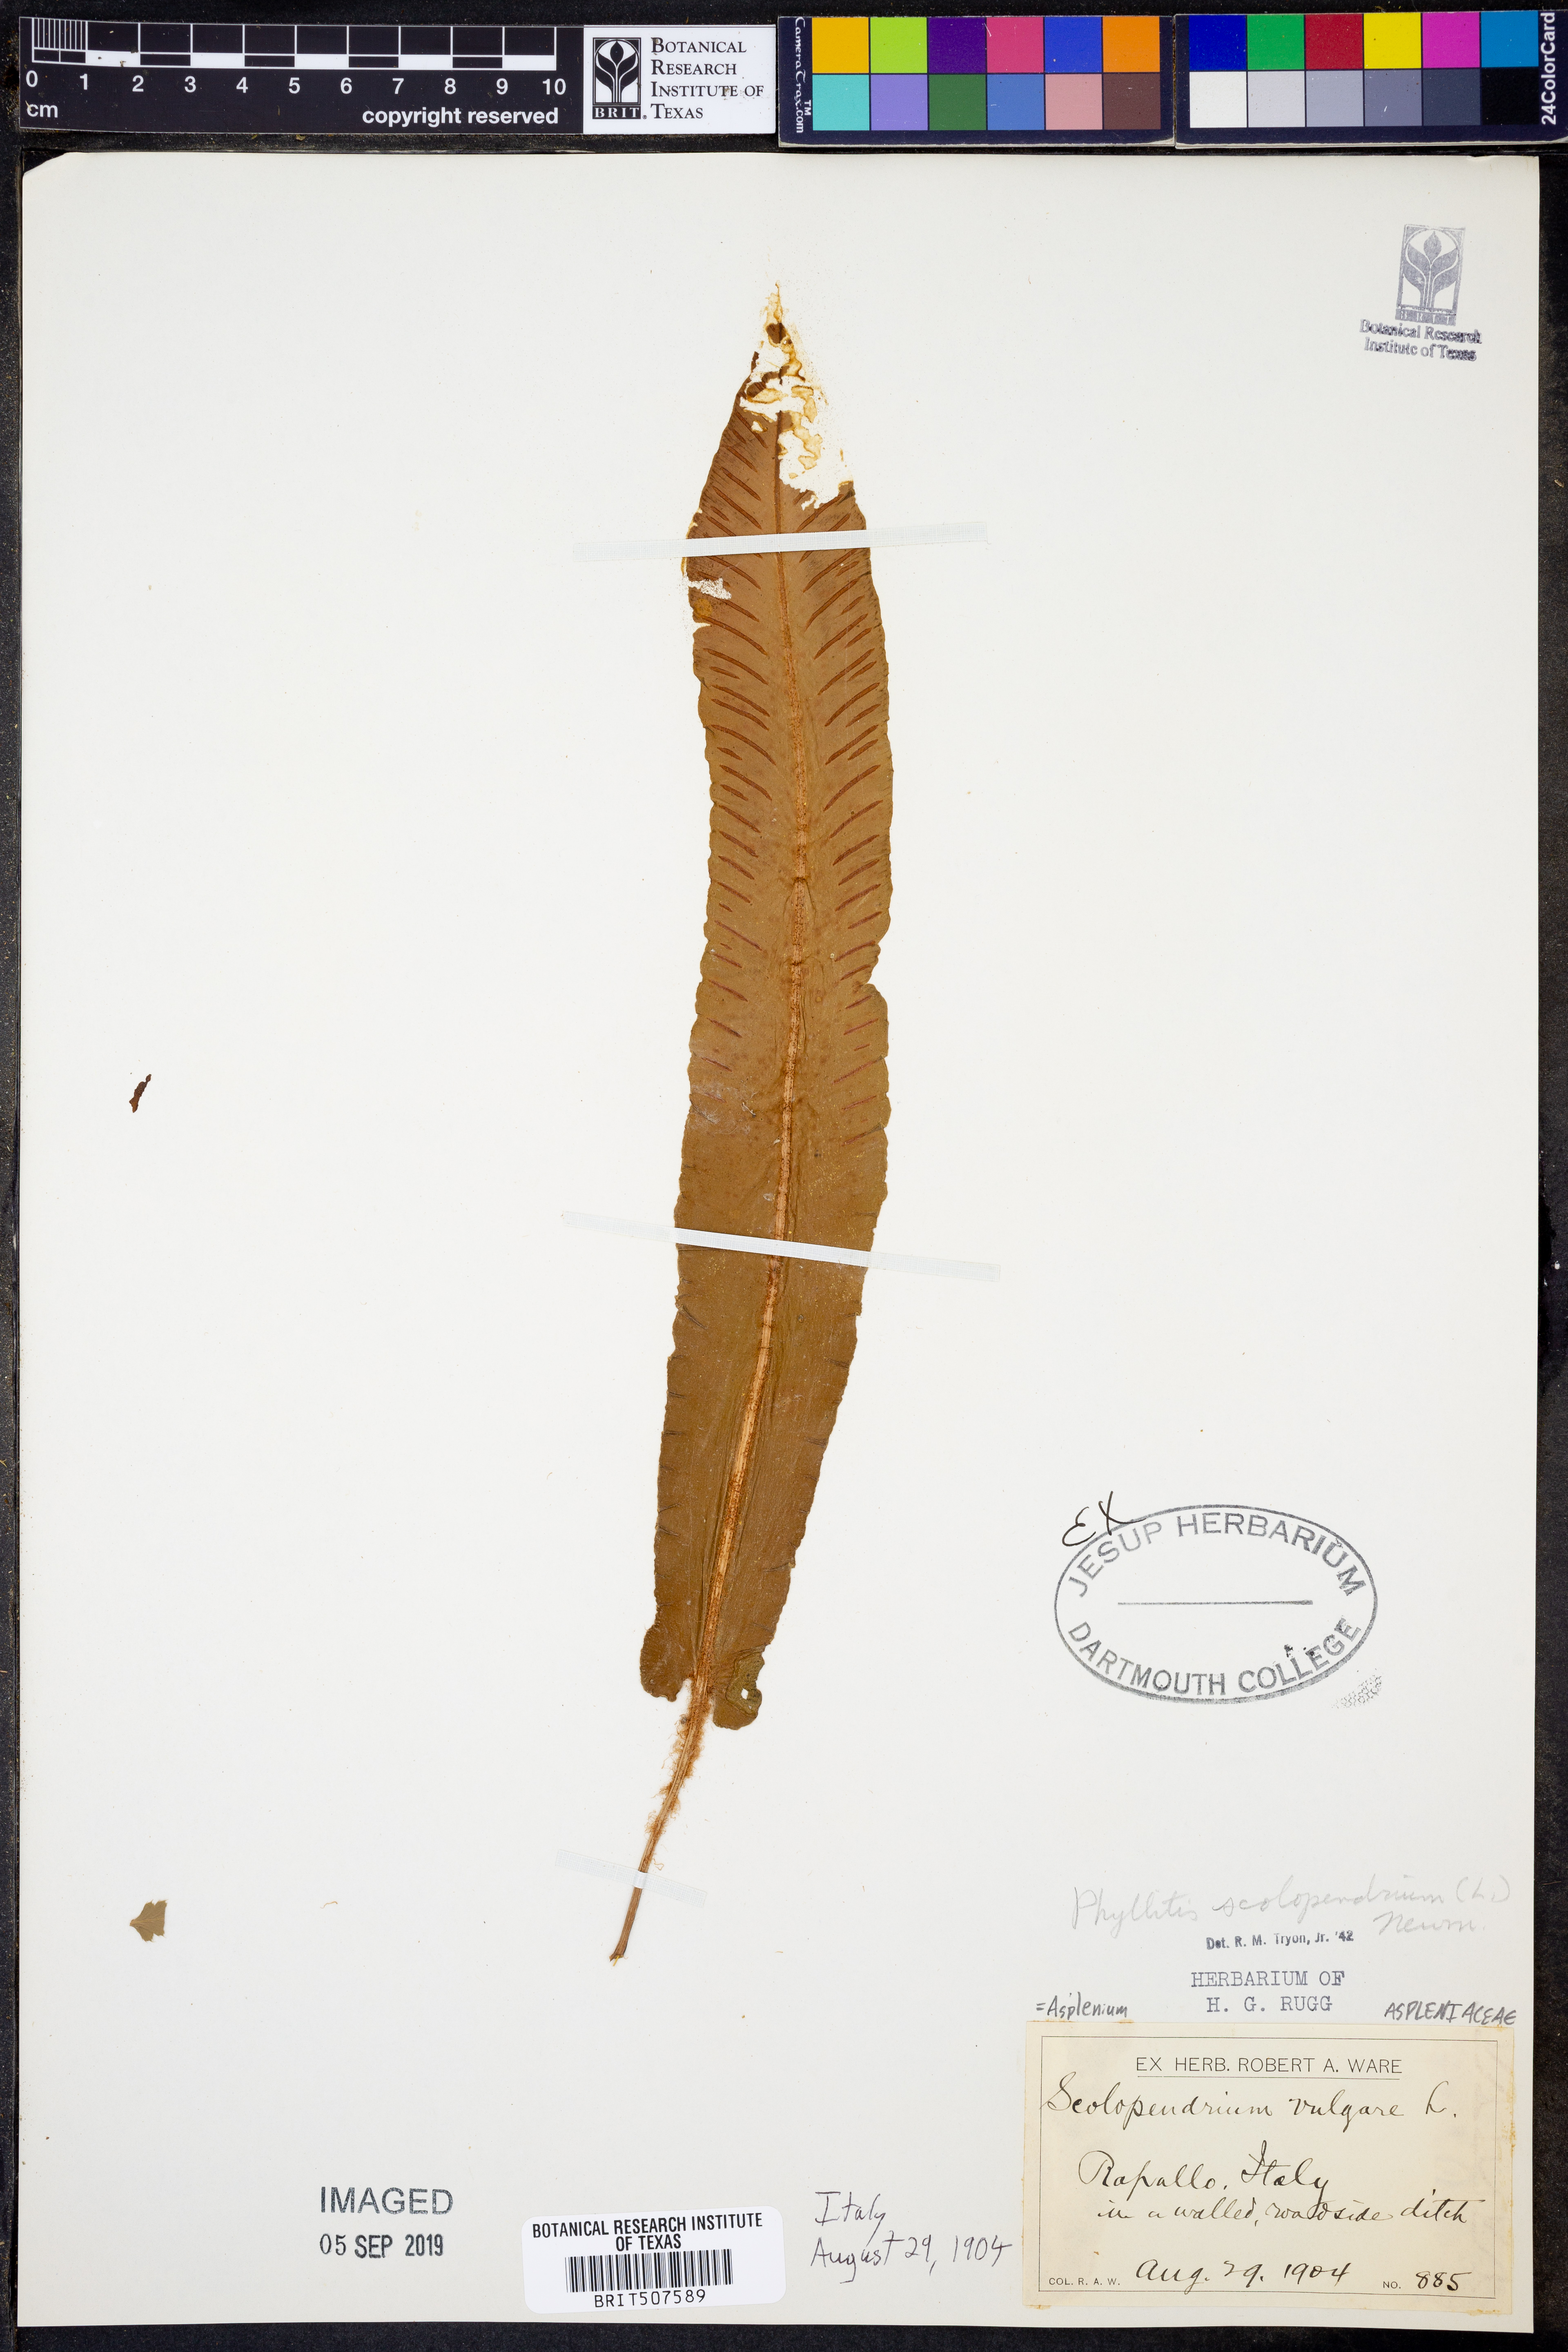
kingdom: Plantae
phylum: Tracheophyta
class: Polypodiopsida
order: Polypodiales
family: Aspleniaceae
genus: Asplenium
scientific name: Asplenium scolopendrium
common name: Hart's-tongue fern
